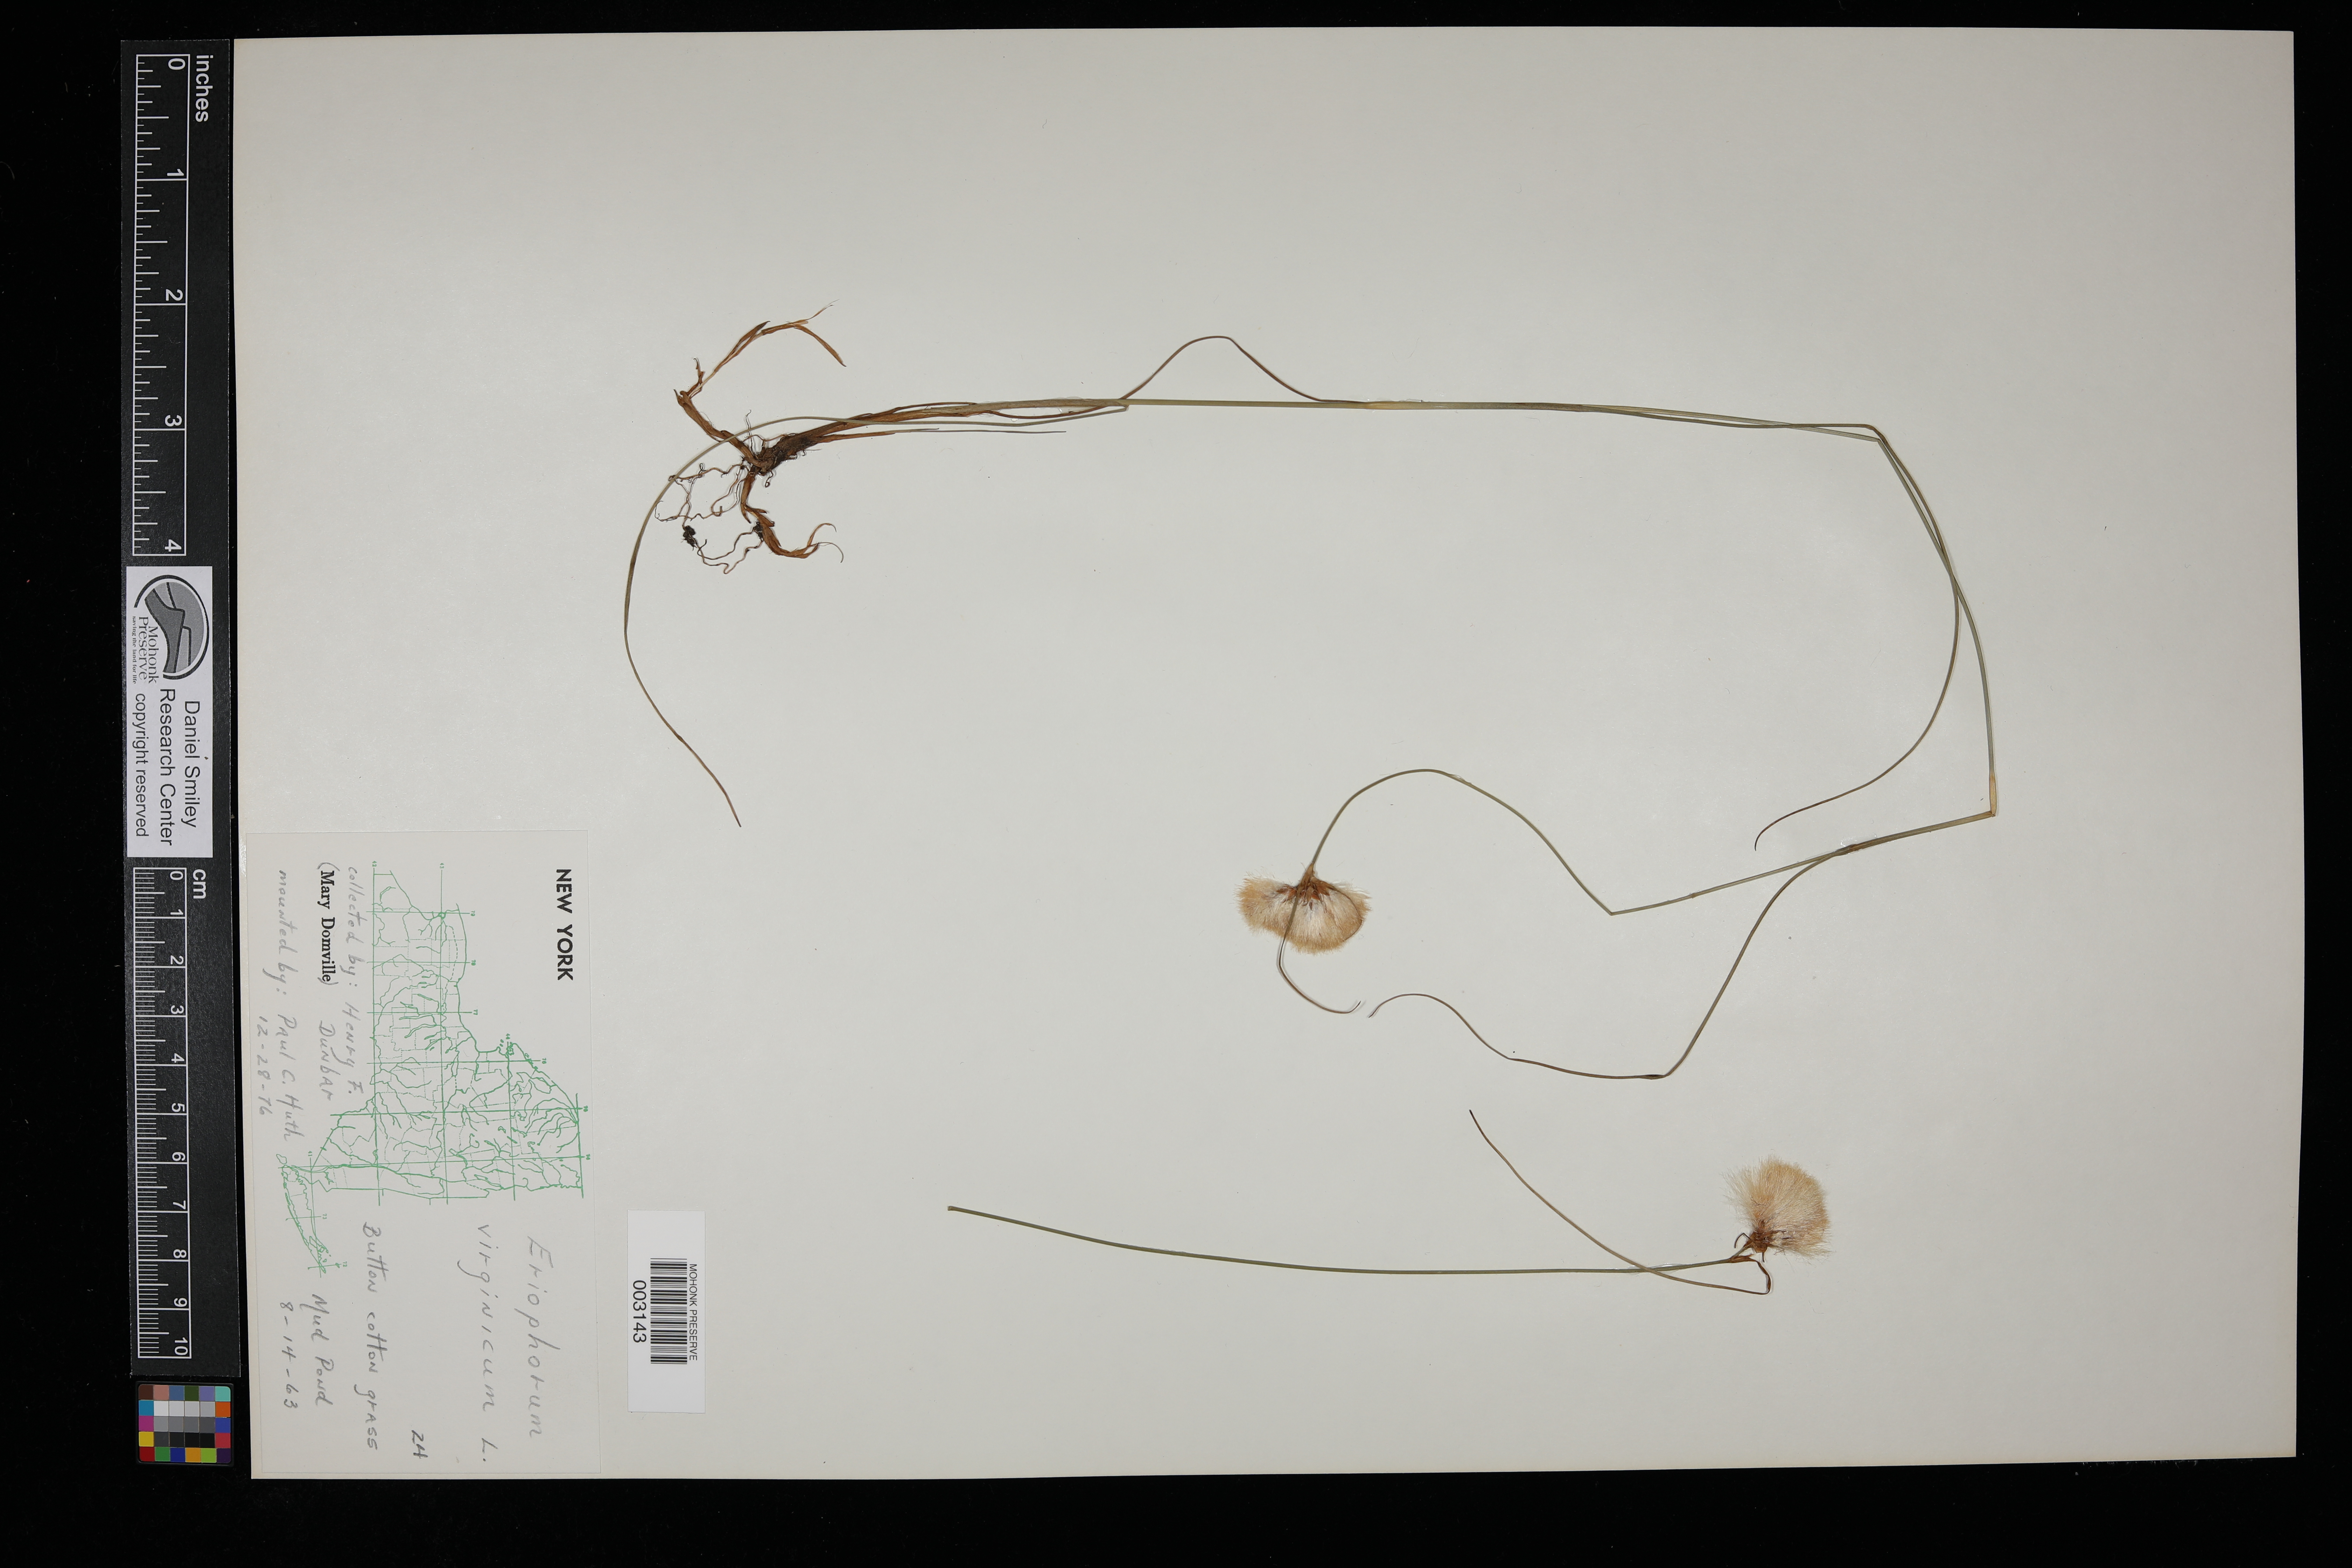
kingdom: Plantae
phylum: Tracheophyta
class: Liliopsida
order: Poales
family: Cyperaceae
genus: Eriophorum
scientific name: Eriophorum virginicum
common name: Tawny cottongrass
